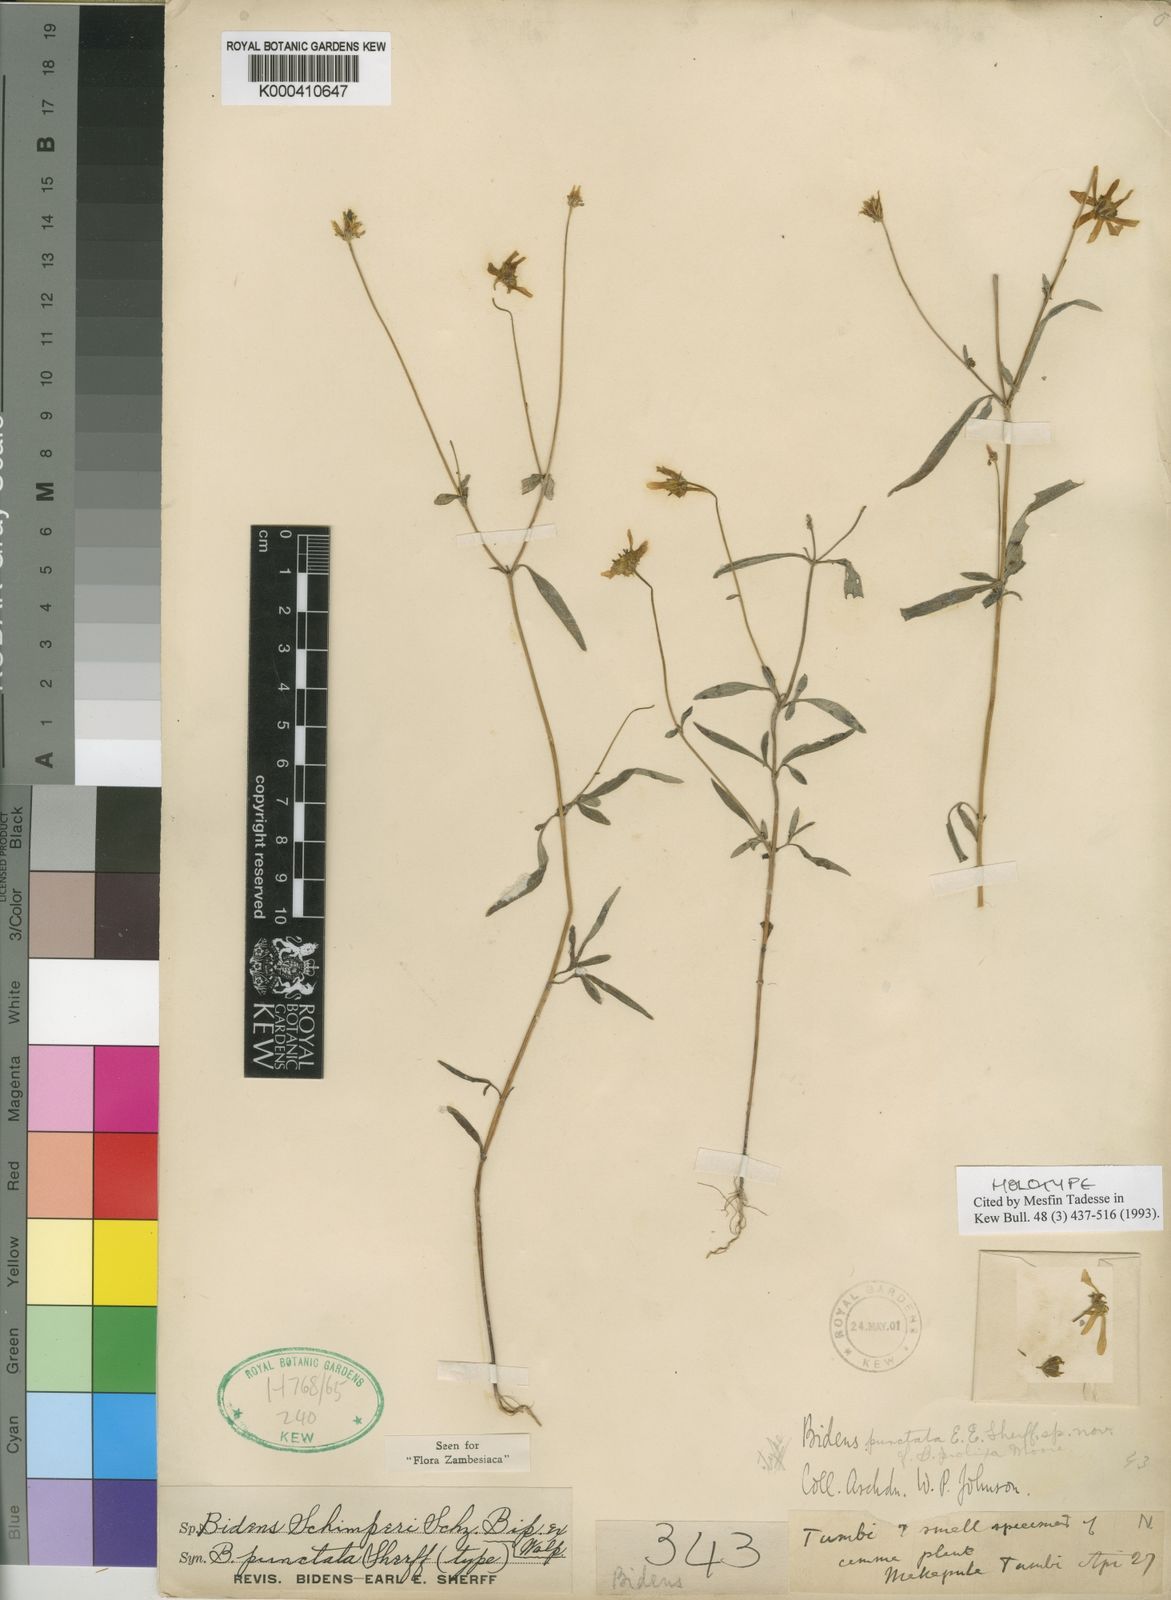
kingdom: Plantae
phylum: Tracheophyta
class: Magnoliopsida
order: Asterales
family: Asteraceae
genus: Bidens
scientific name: Bidens schimperi
